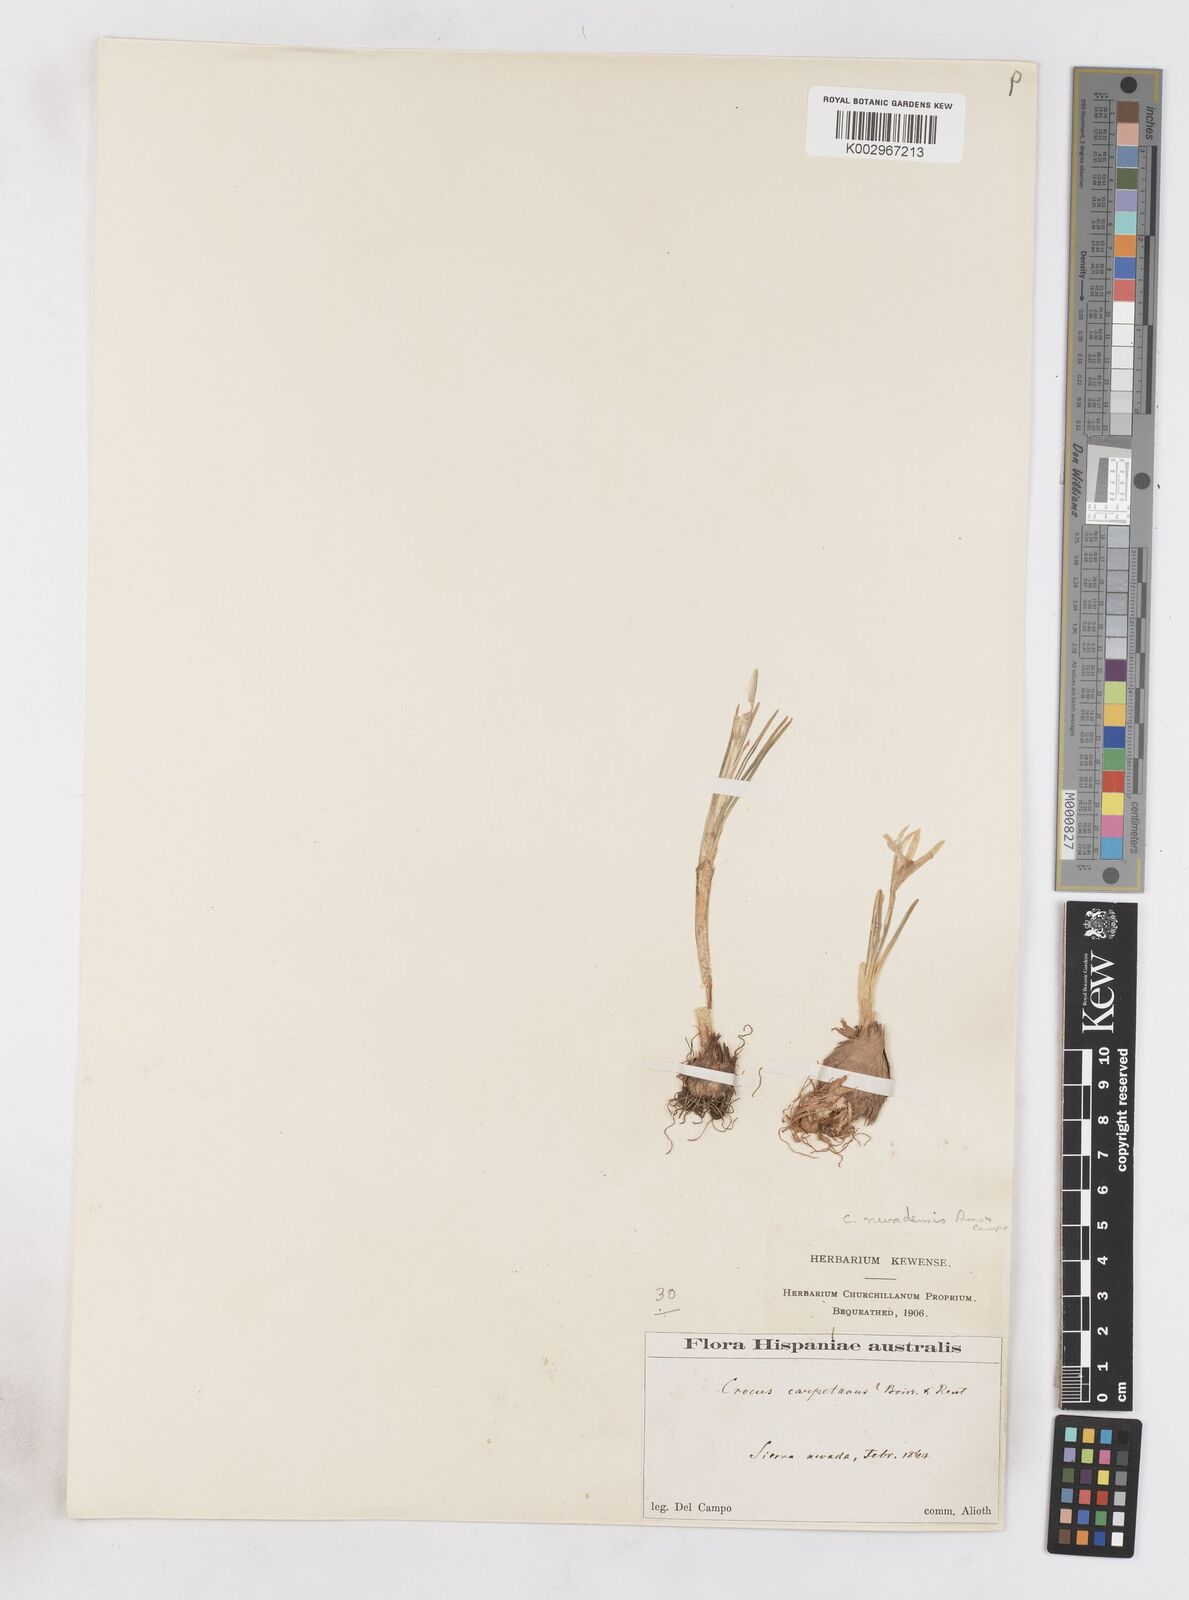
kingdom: Plantae
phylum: Tracheophyta
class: Liliopsida
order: Asparagales
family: Iridaceae
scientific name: Iridaceae
